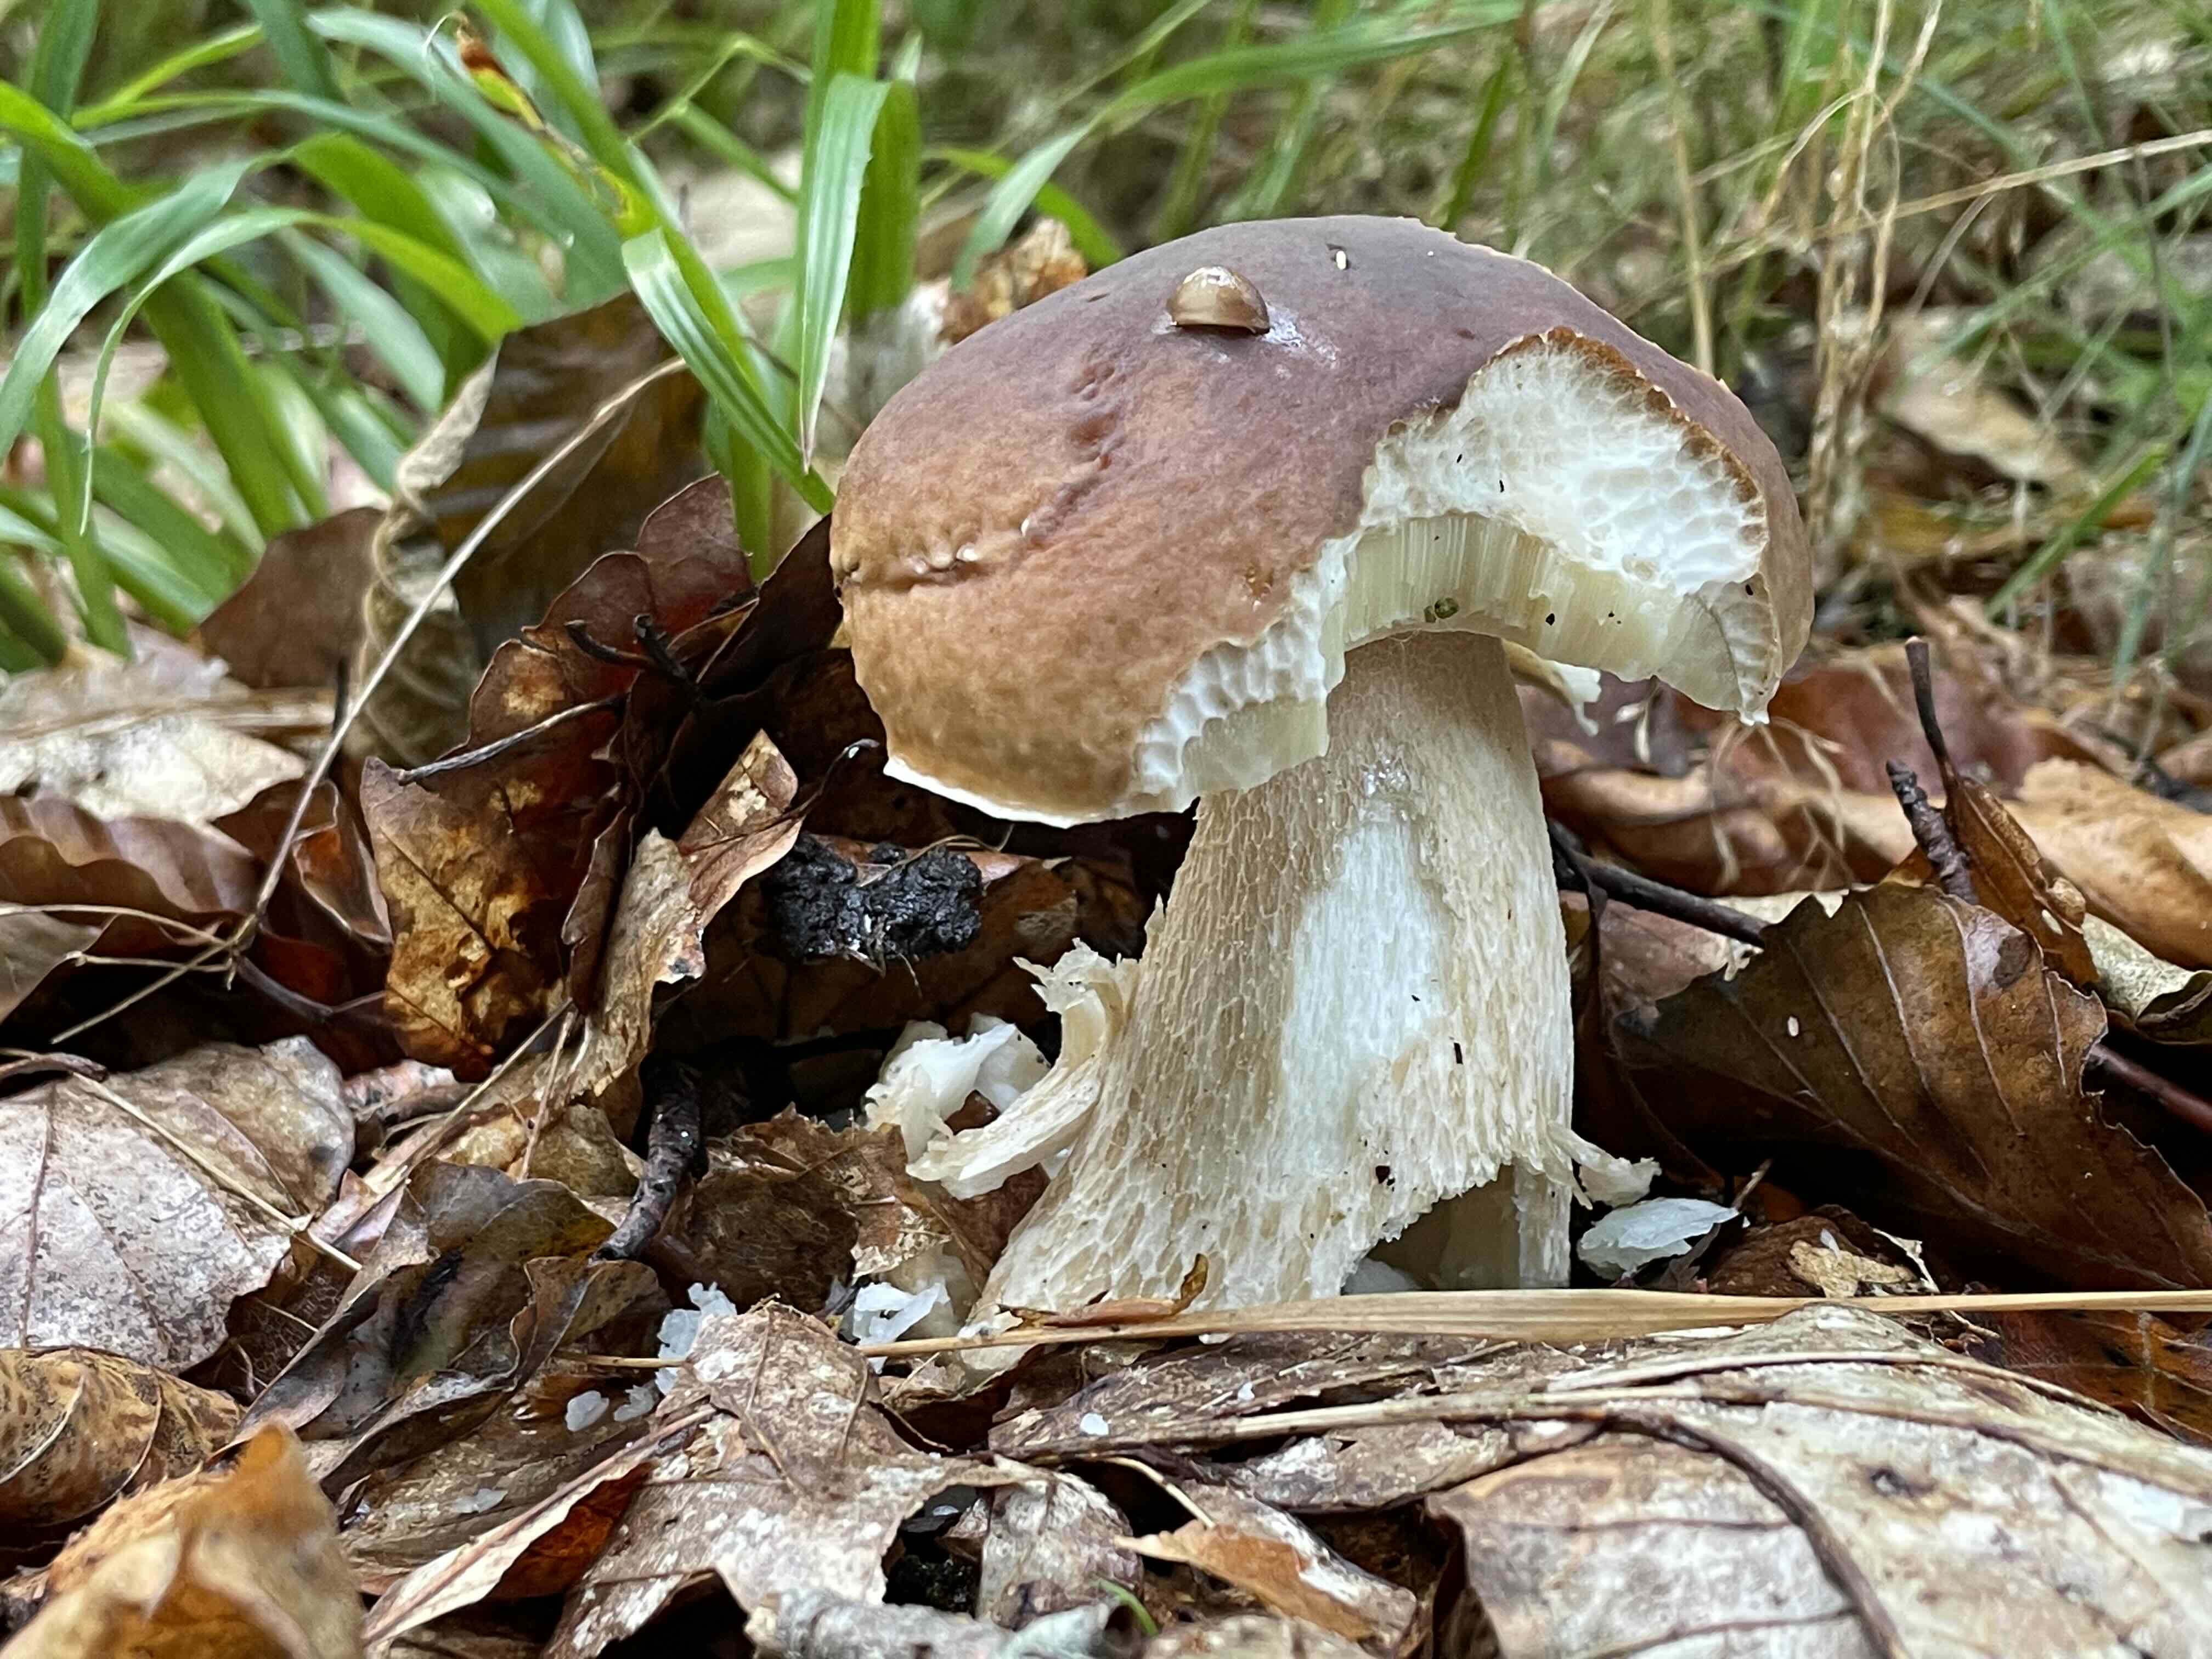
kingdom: Fungi
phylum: Basidiomycota
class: Agaricomycetes
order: Boletales
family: Boletaceae
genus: Boletus
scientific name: Boletus edulis
